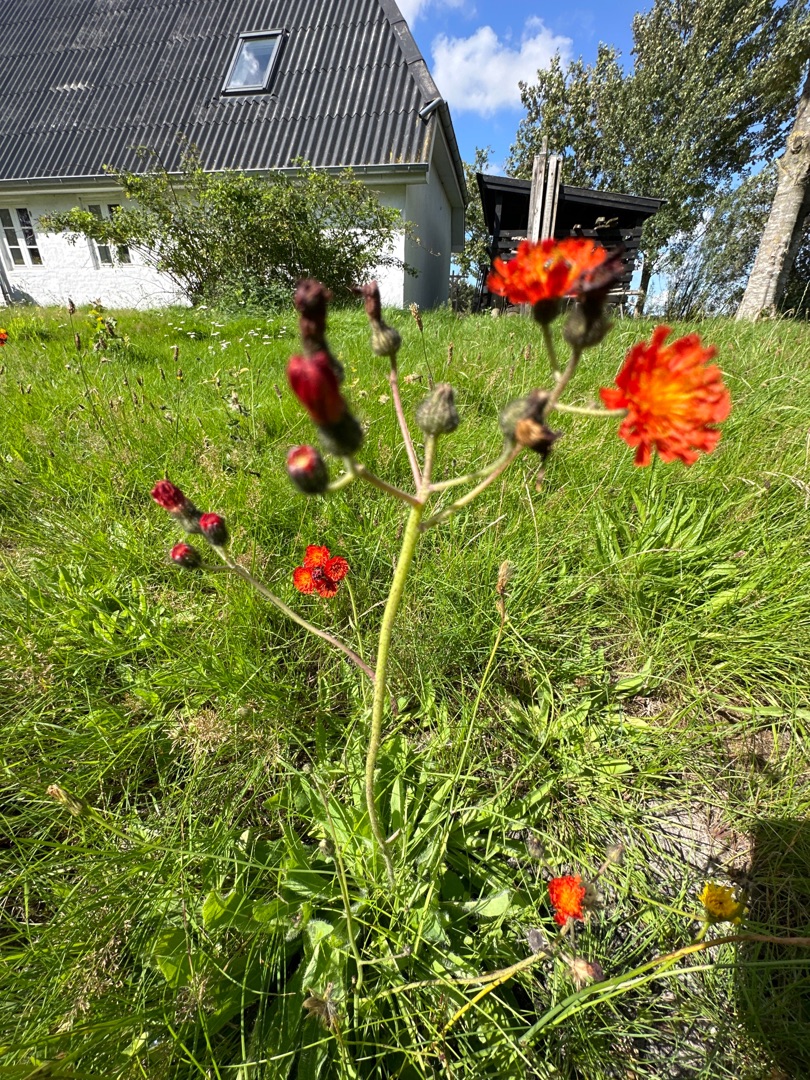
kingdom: Plantae
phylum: Tracheophyta
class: Magnoliopsida
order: Asterales
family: Asteraceae
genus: Pilosella
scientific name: Pilosella aurantiaca
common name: Pomerans-høgeurt
